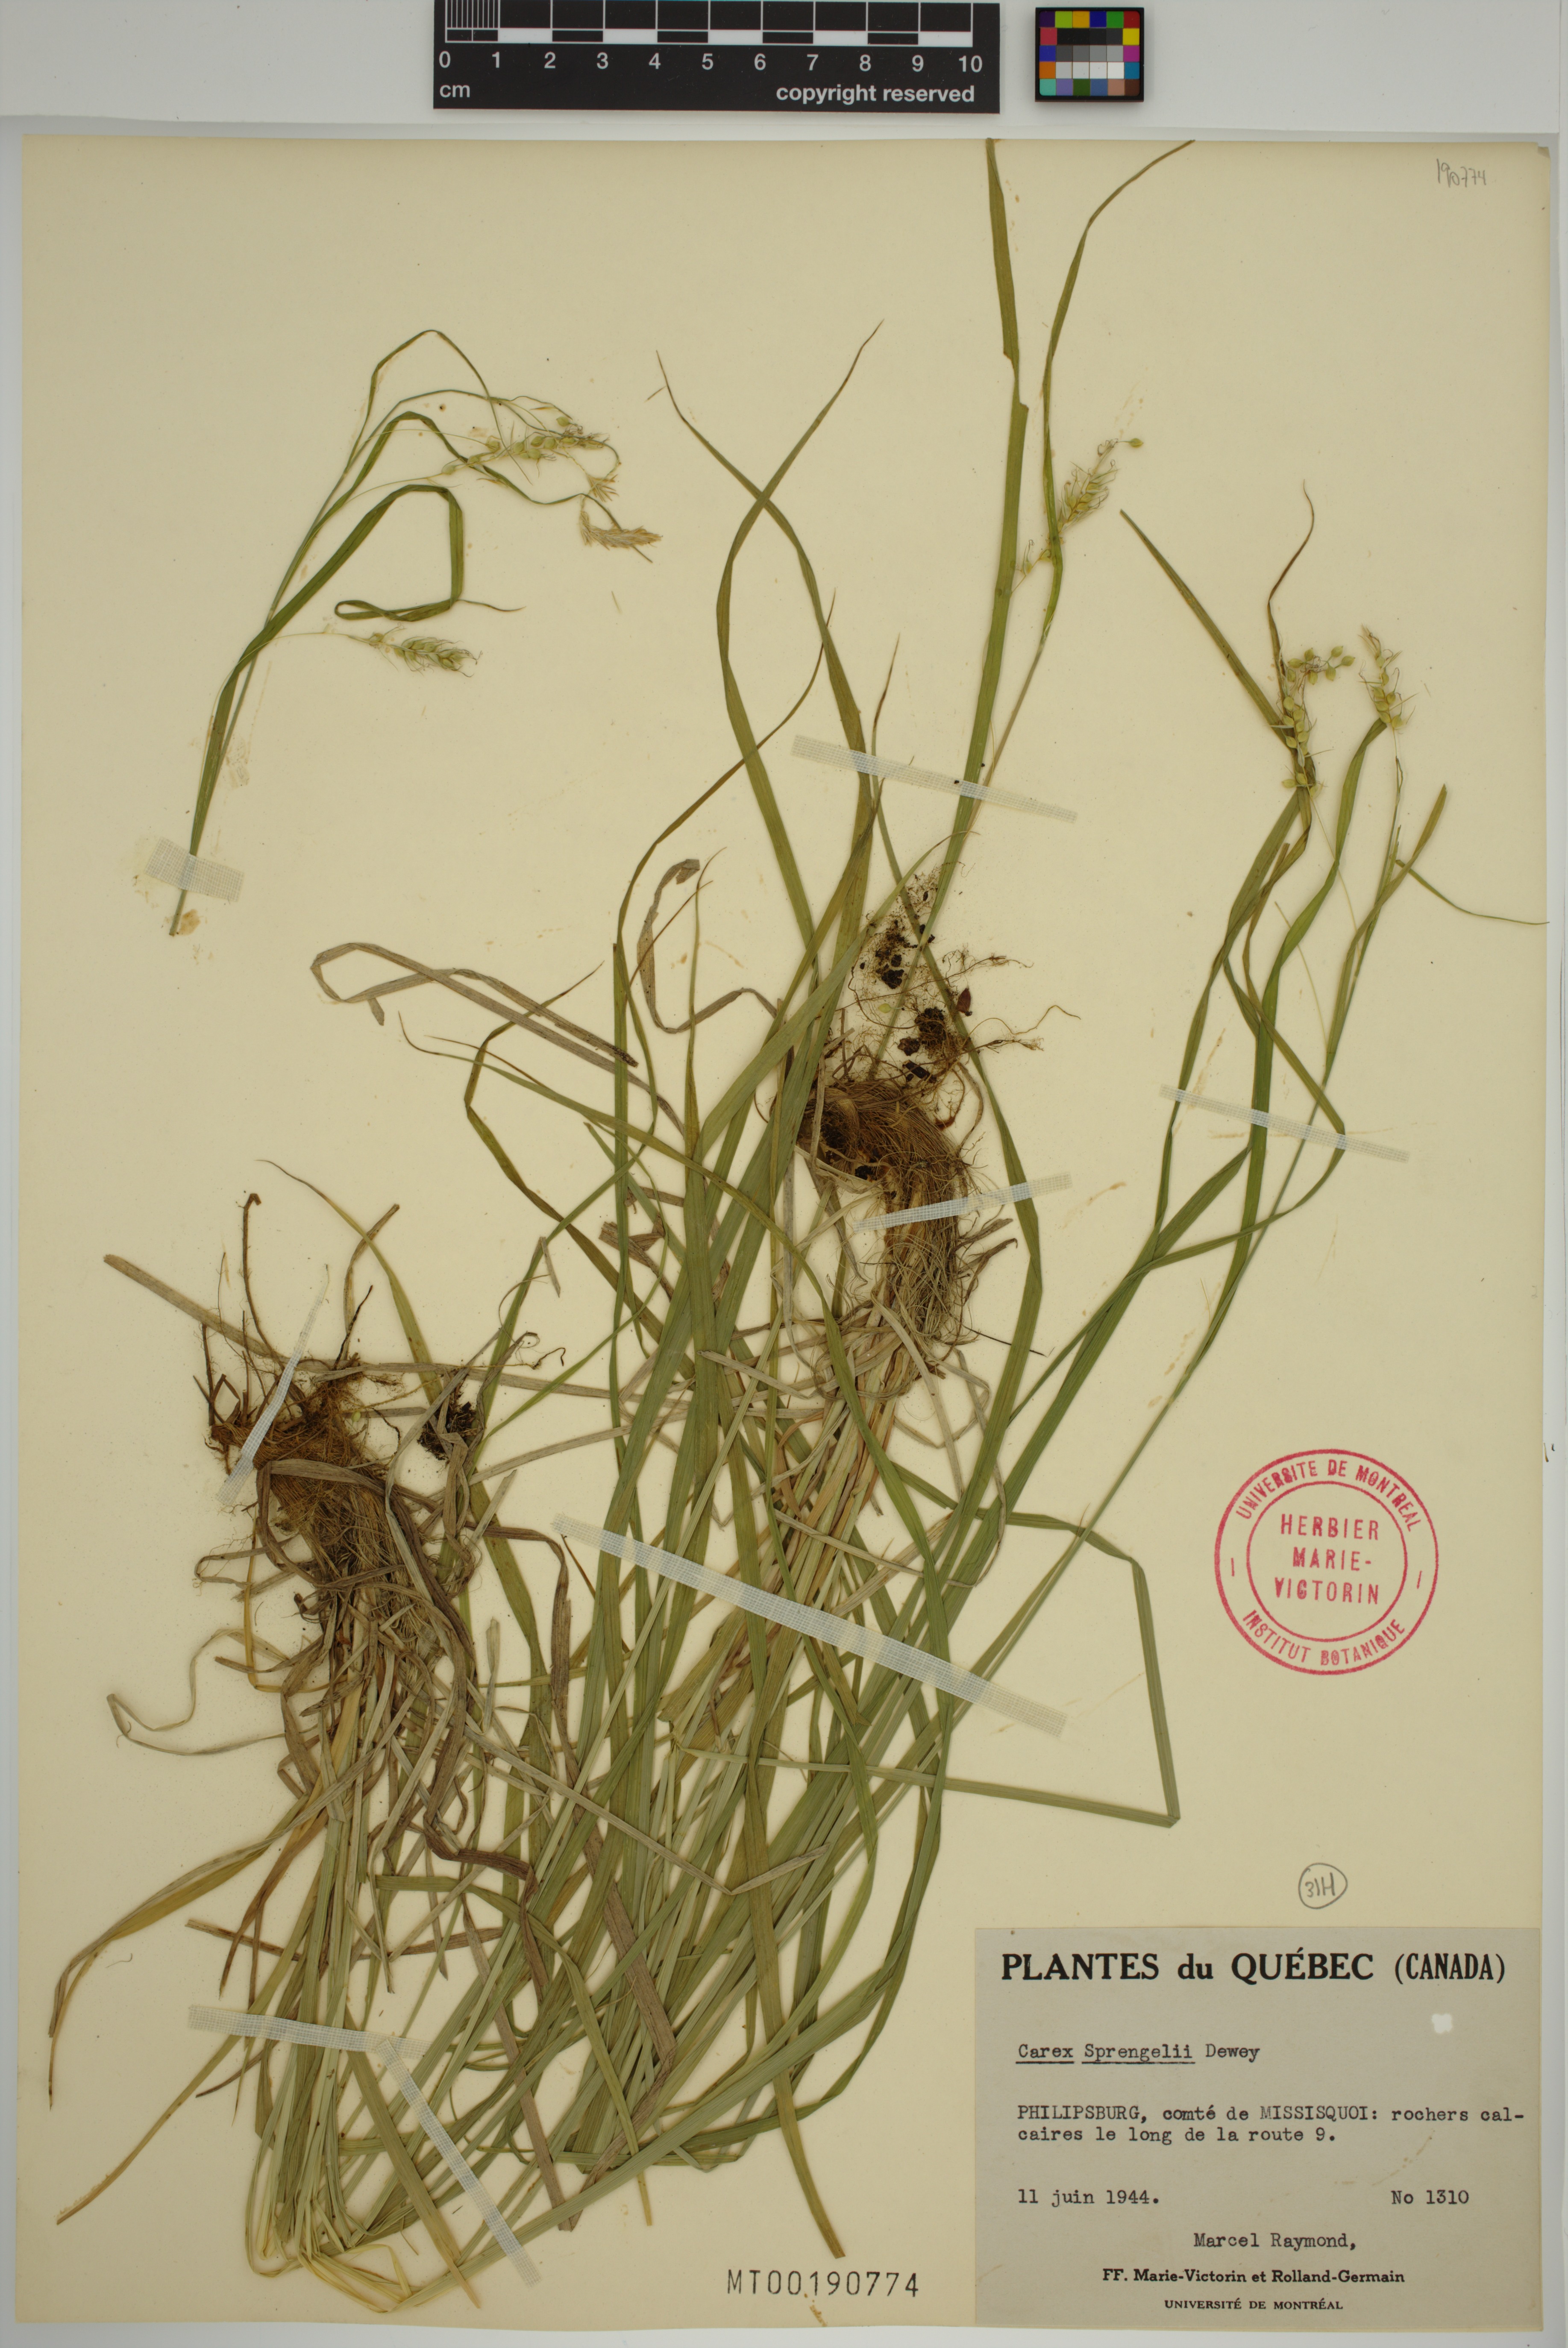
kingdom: Plantae
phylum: Tracheophyta
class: Liliopsida
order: Poales
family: Cyperaceae
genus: Carex
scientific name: Carex sprengelii
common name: Long-beaked sedge
